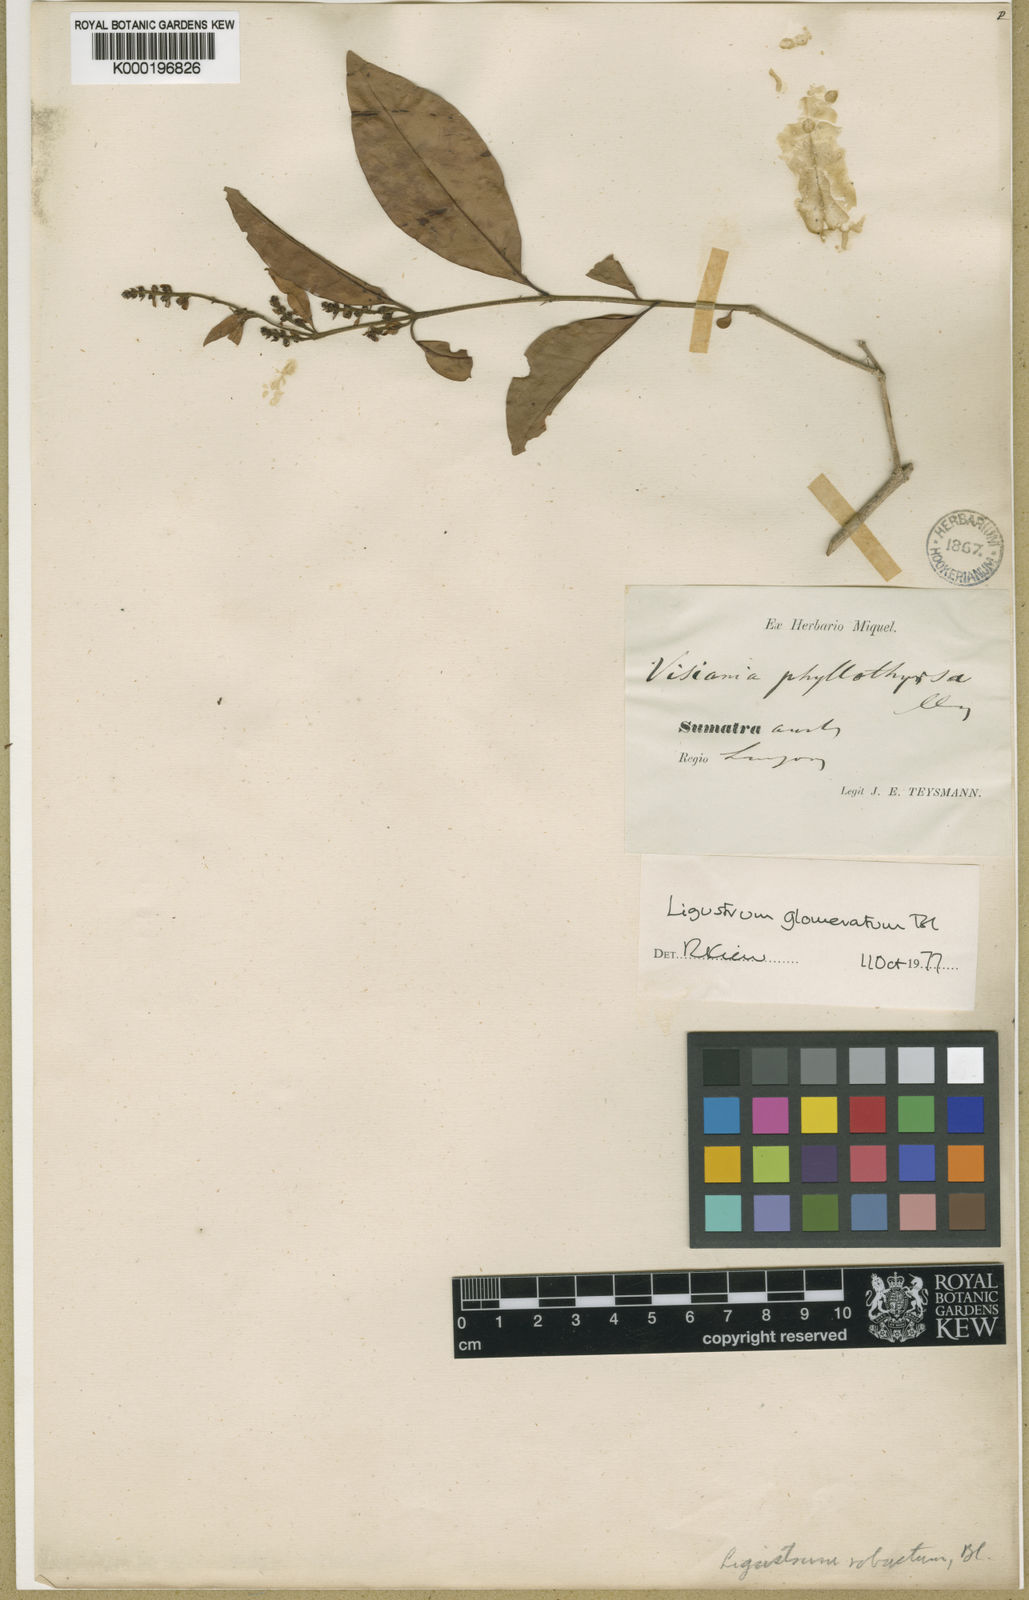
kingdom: Plantae
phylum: Tracheophyta
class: Magnoliopsida
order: Lamiales
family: Oleaceae
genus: Ligustrum
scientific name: Ligustrum glomeratum
